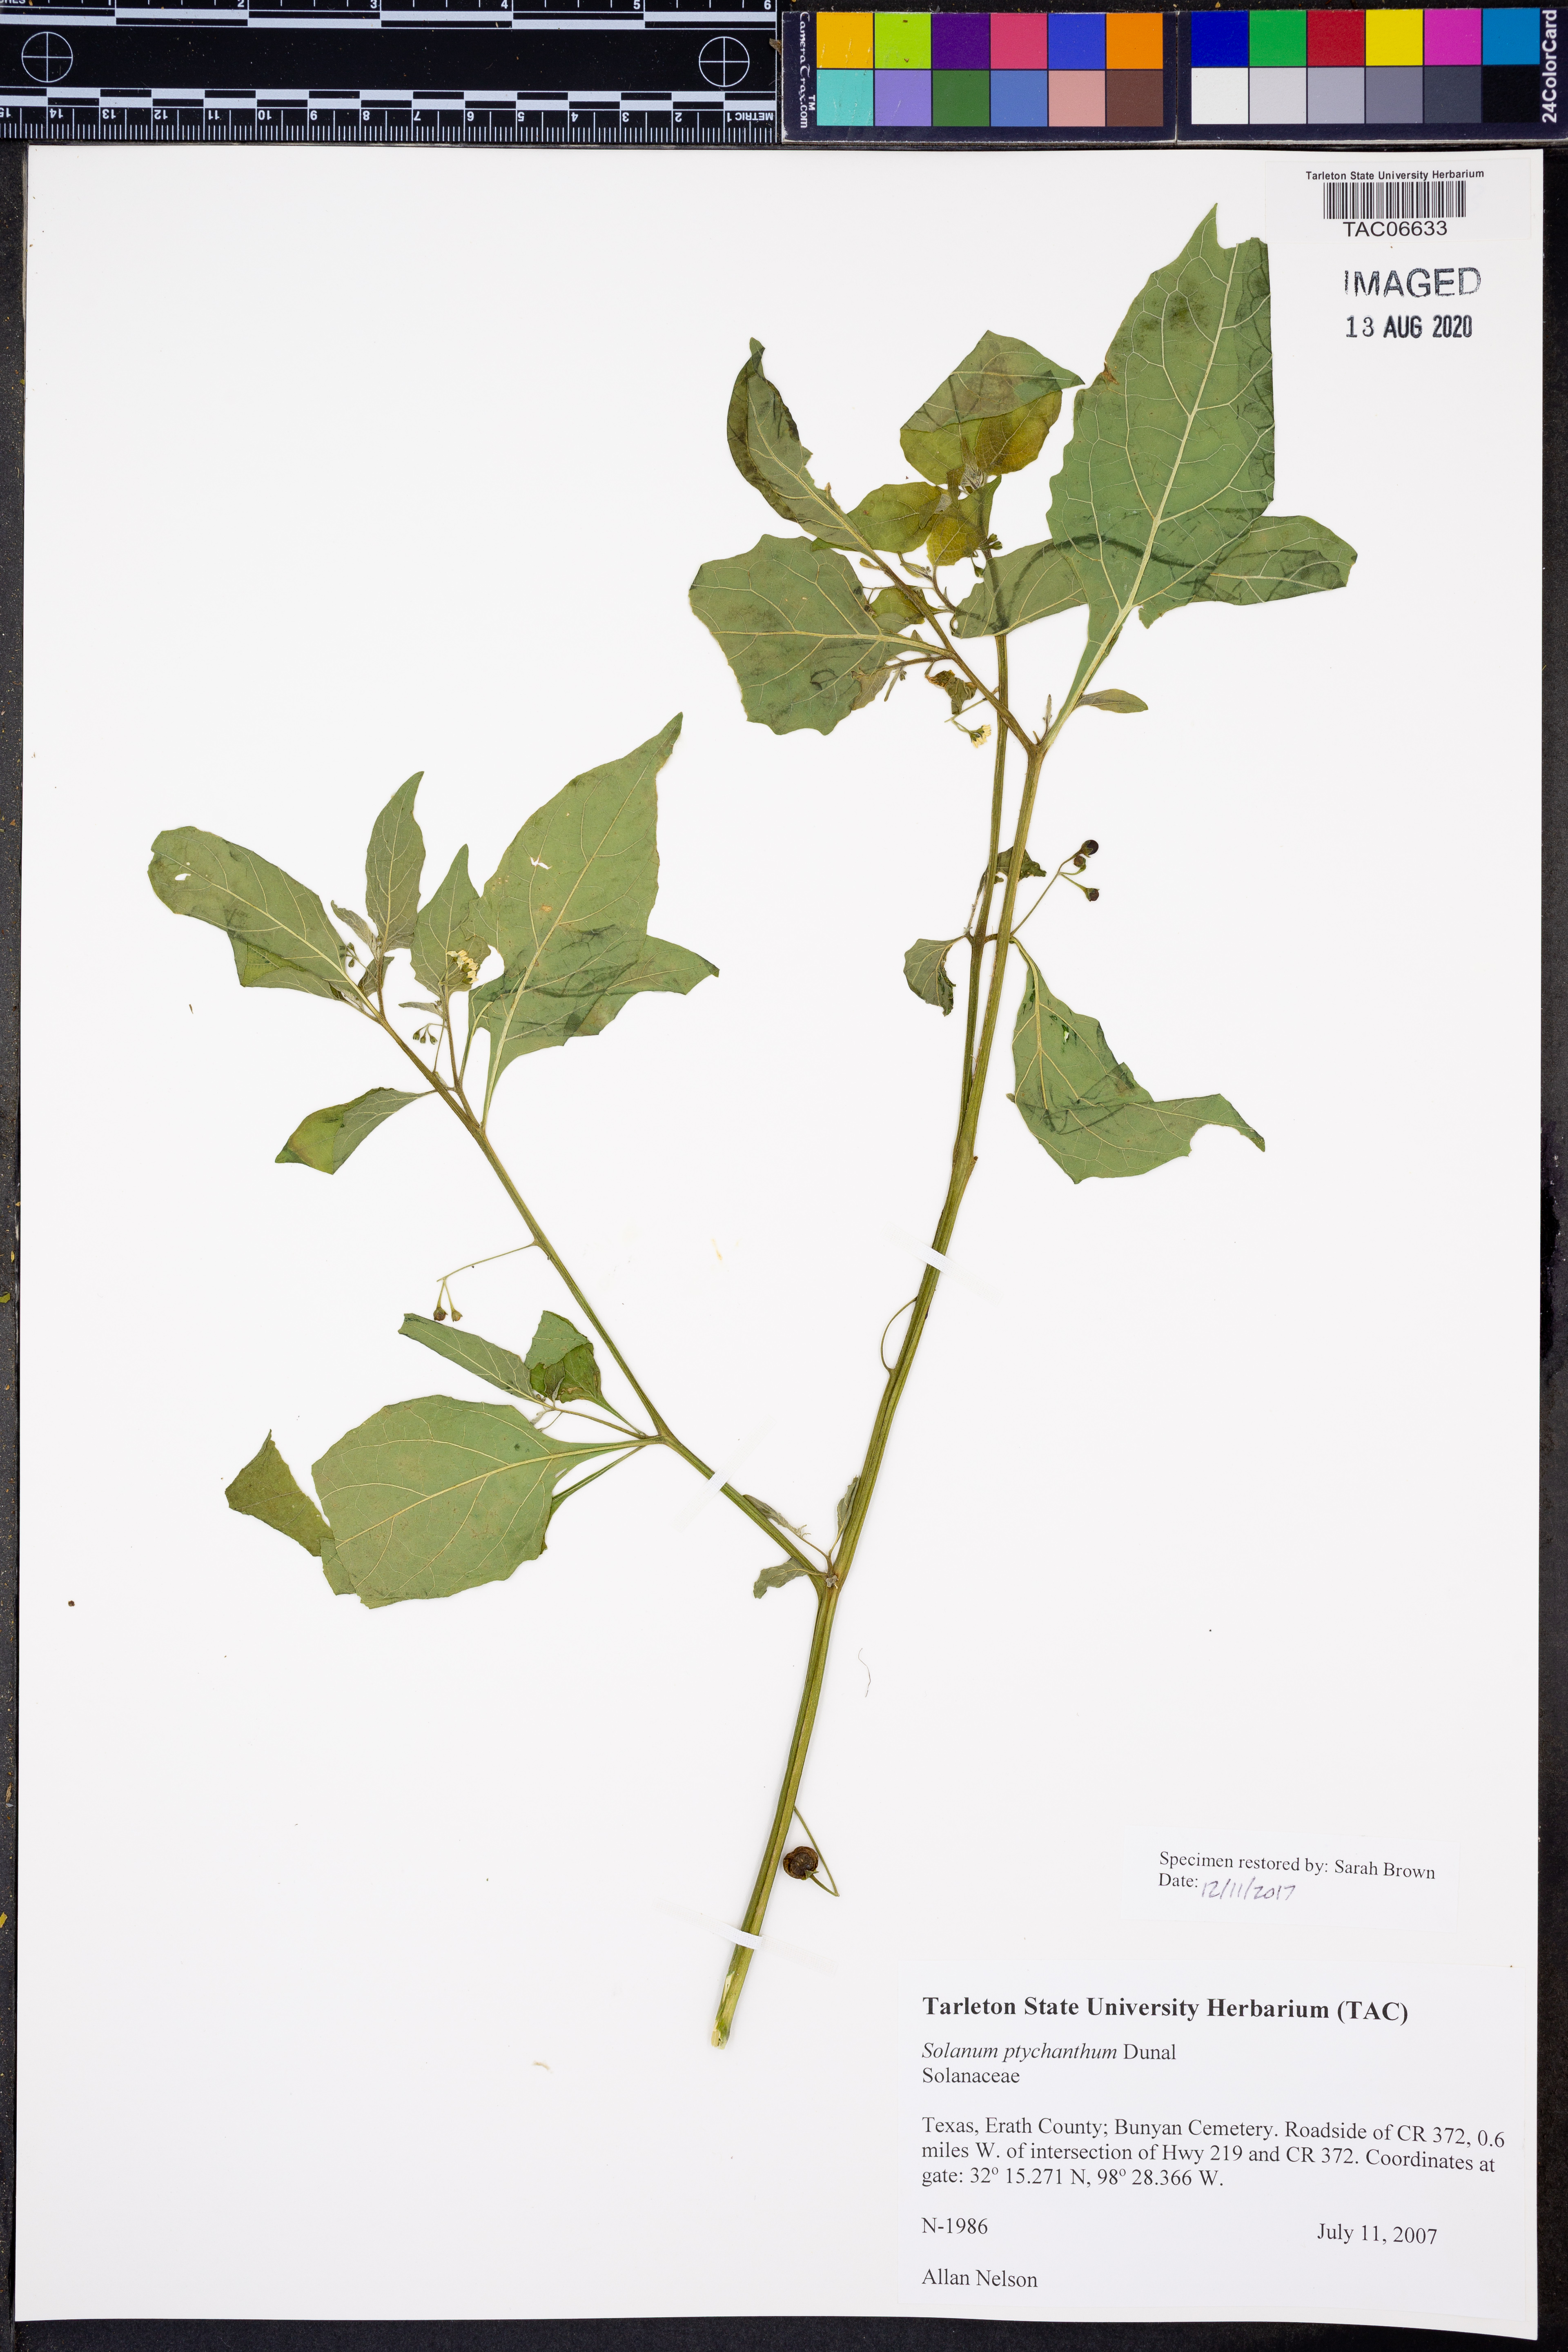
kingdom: Plantae
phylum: Tracheophyta
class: Magnoliopsida
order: Solanales
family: Solanaceae
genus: Solanum
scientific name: Solanum americanum
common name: American black nightshade
